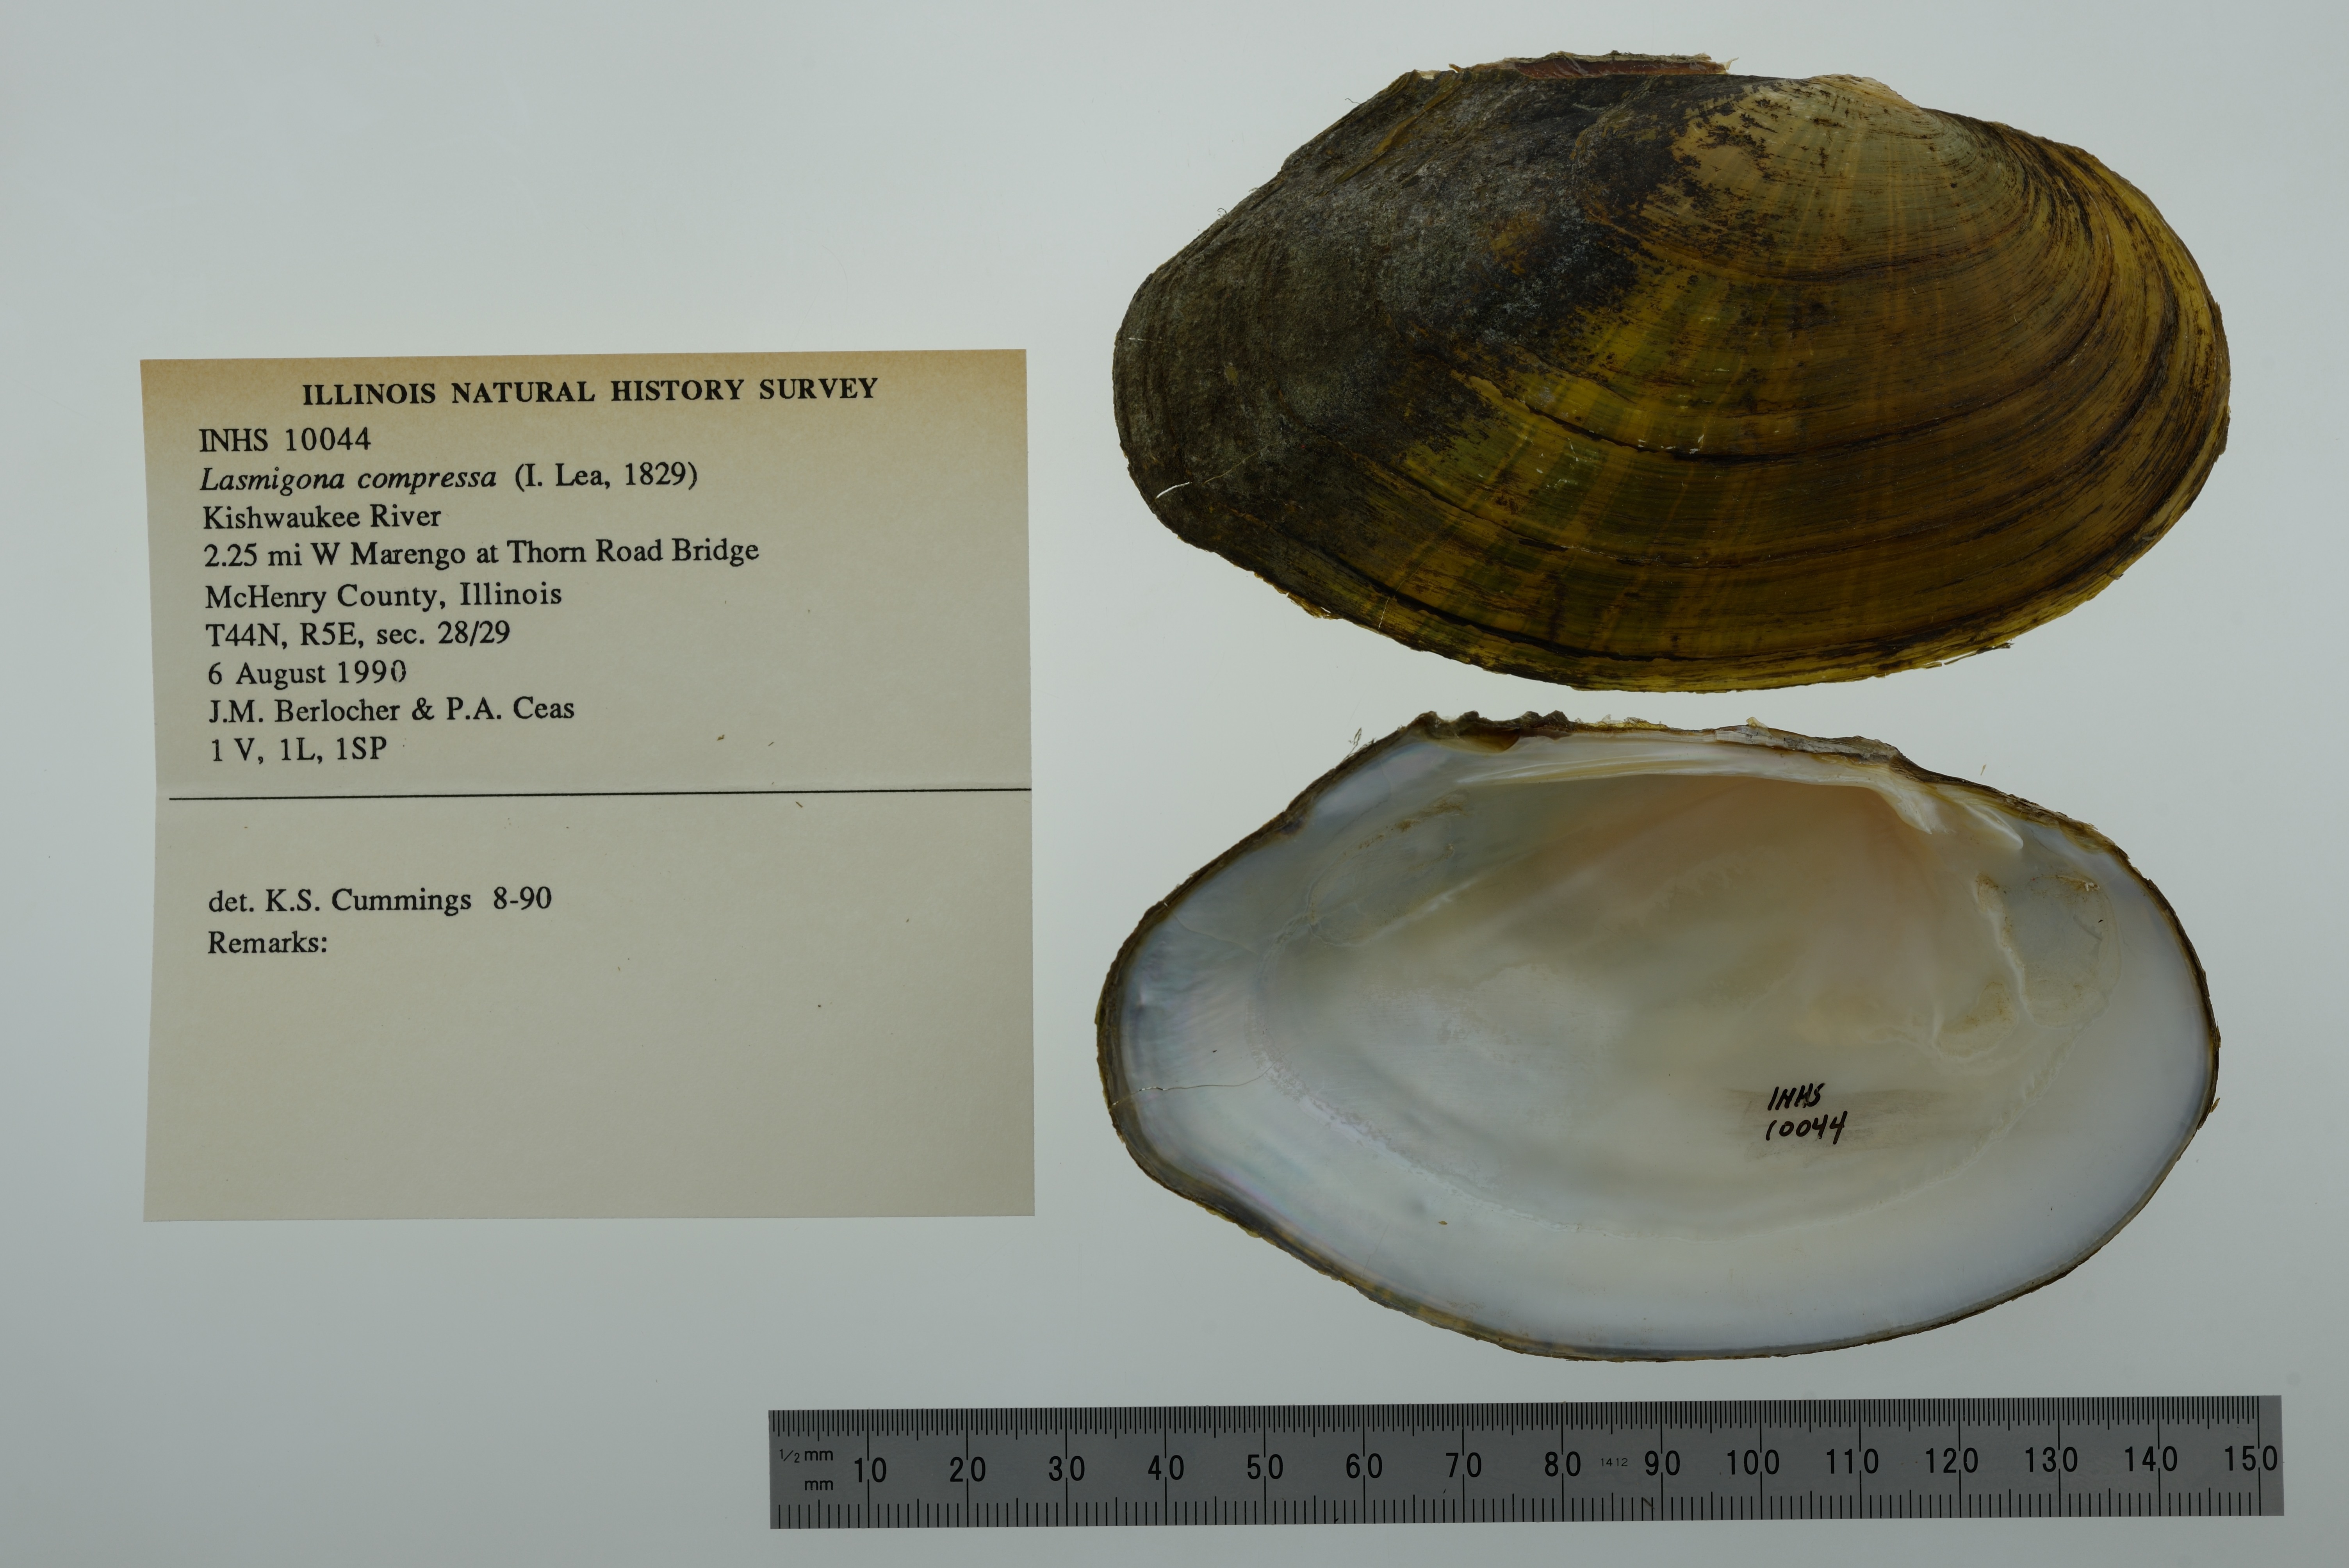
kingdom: Animalia
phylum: Mollusca
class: Bivalvia
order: Unionida
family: Unionidae
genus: Lasmigona
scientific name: Lasmigona compressa
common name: Creek heelsplitter
